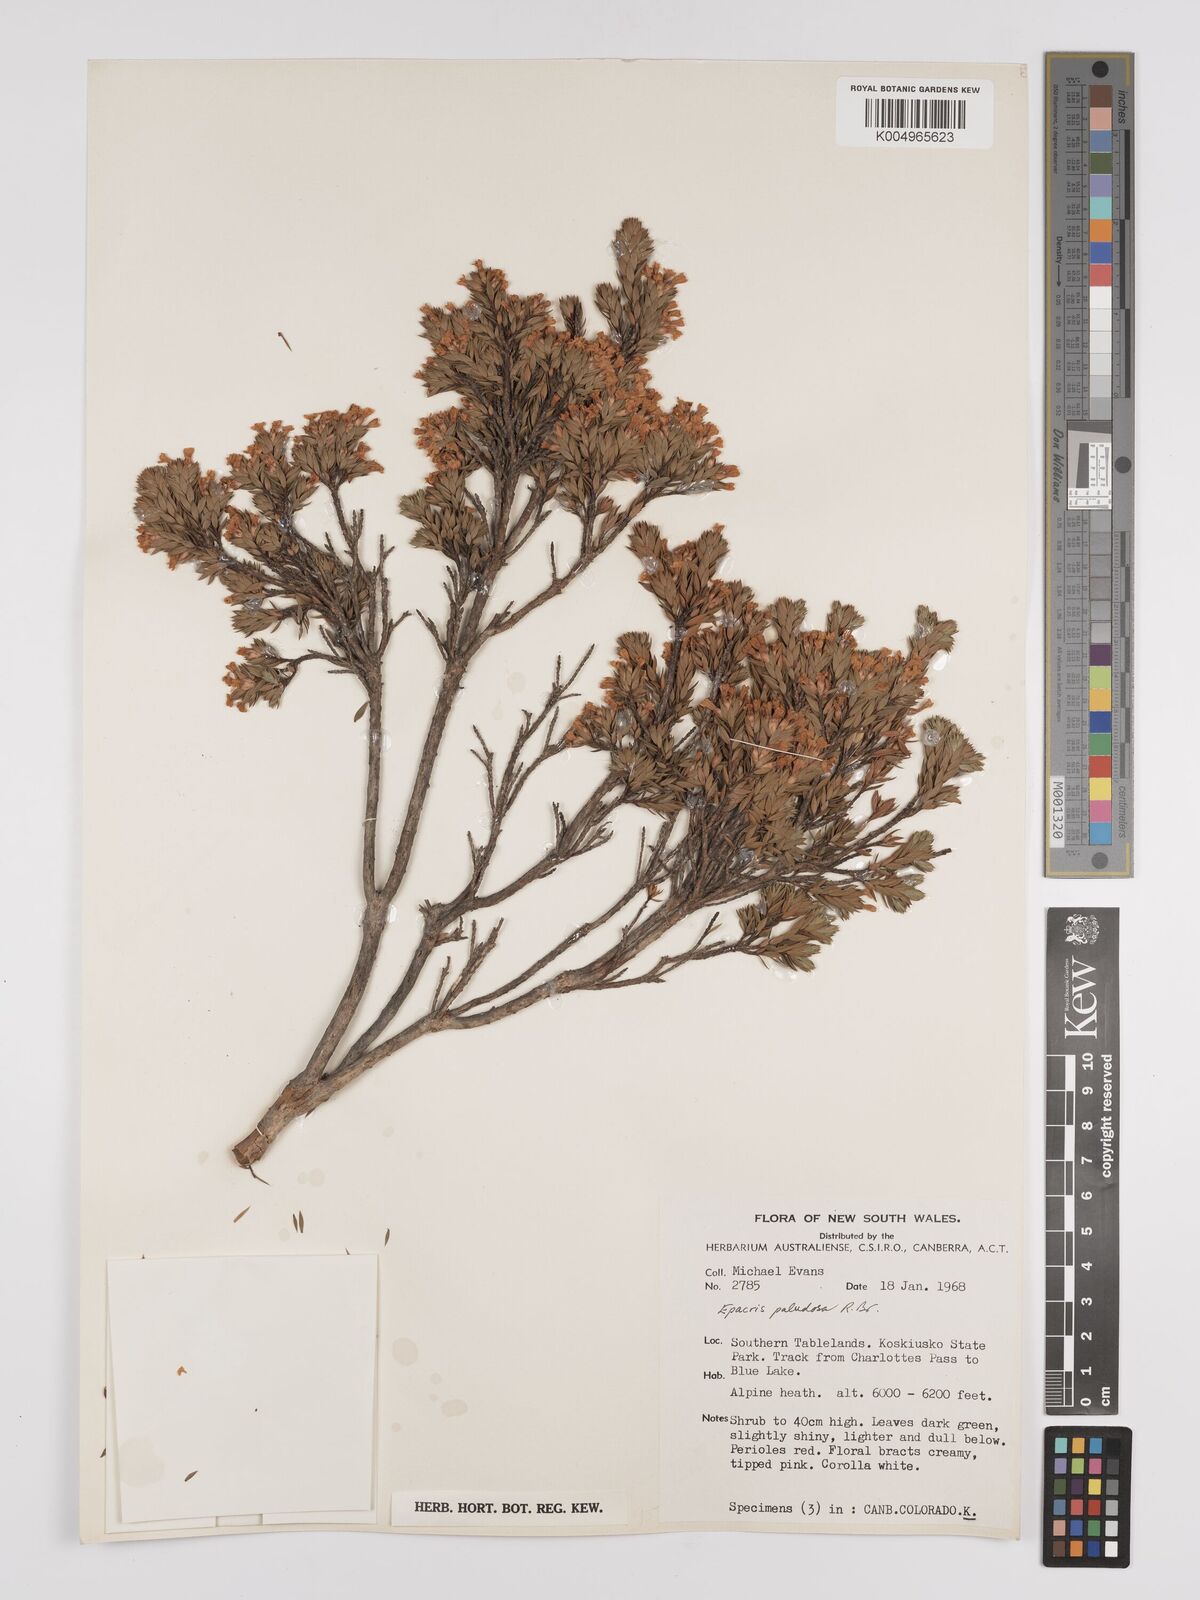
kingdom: Plantae
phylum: Tracheophyta
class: Magnoliopsida
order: Ericales
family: Ericaceae
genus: Epacris
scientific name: Epacris paludosa
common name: Swamp-heath
